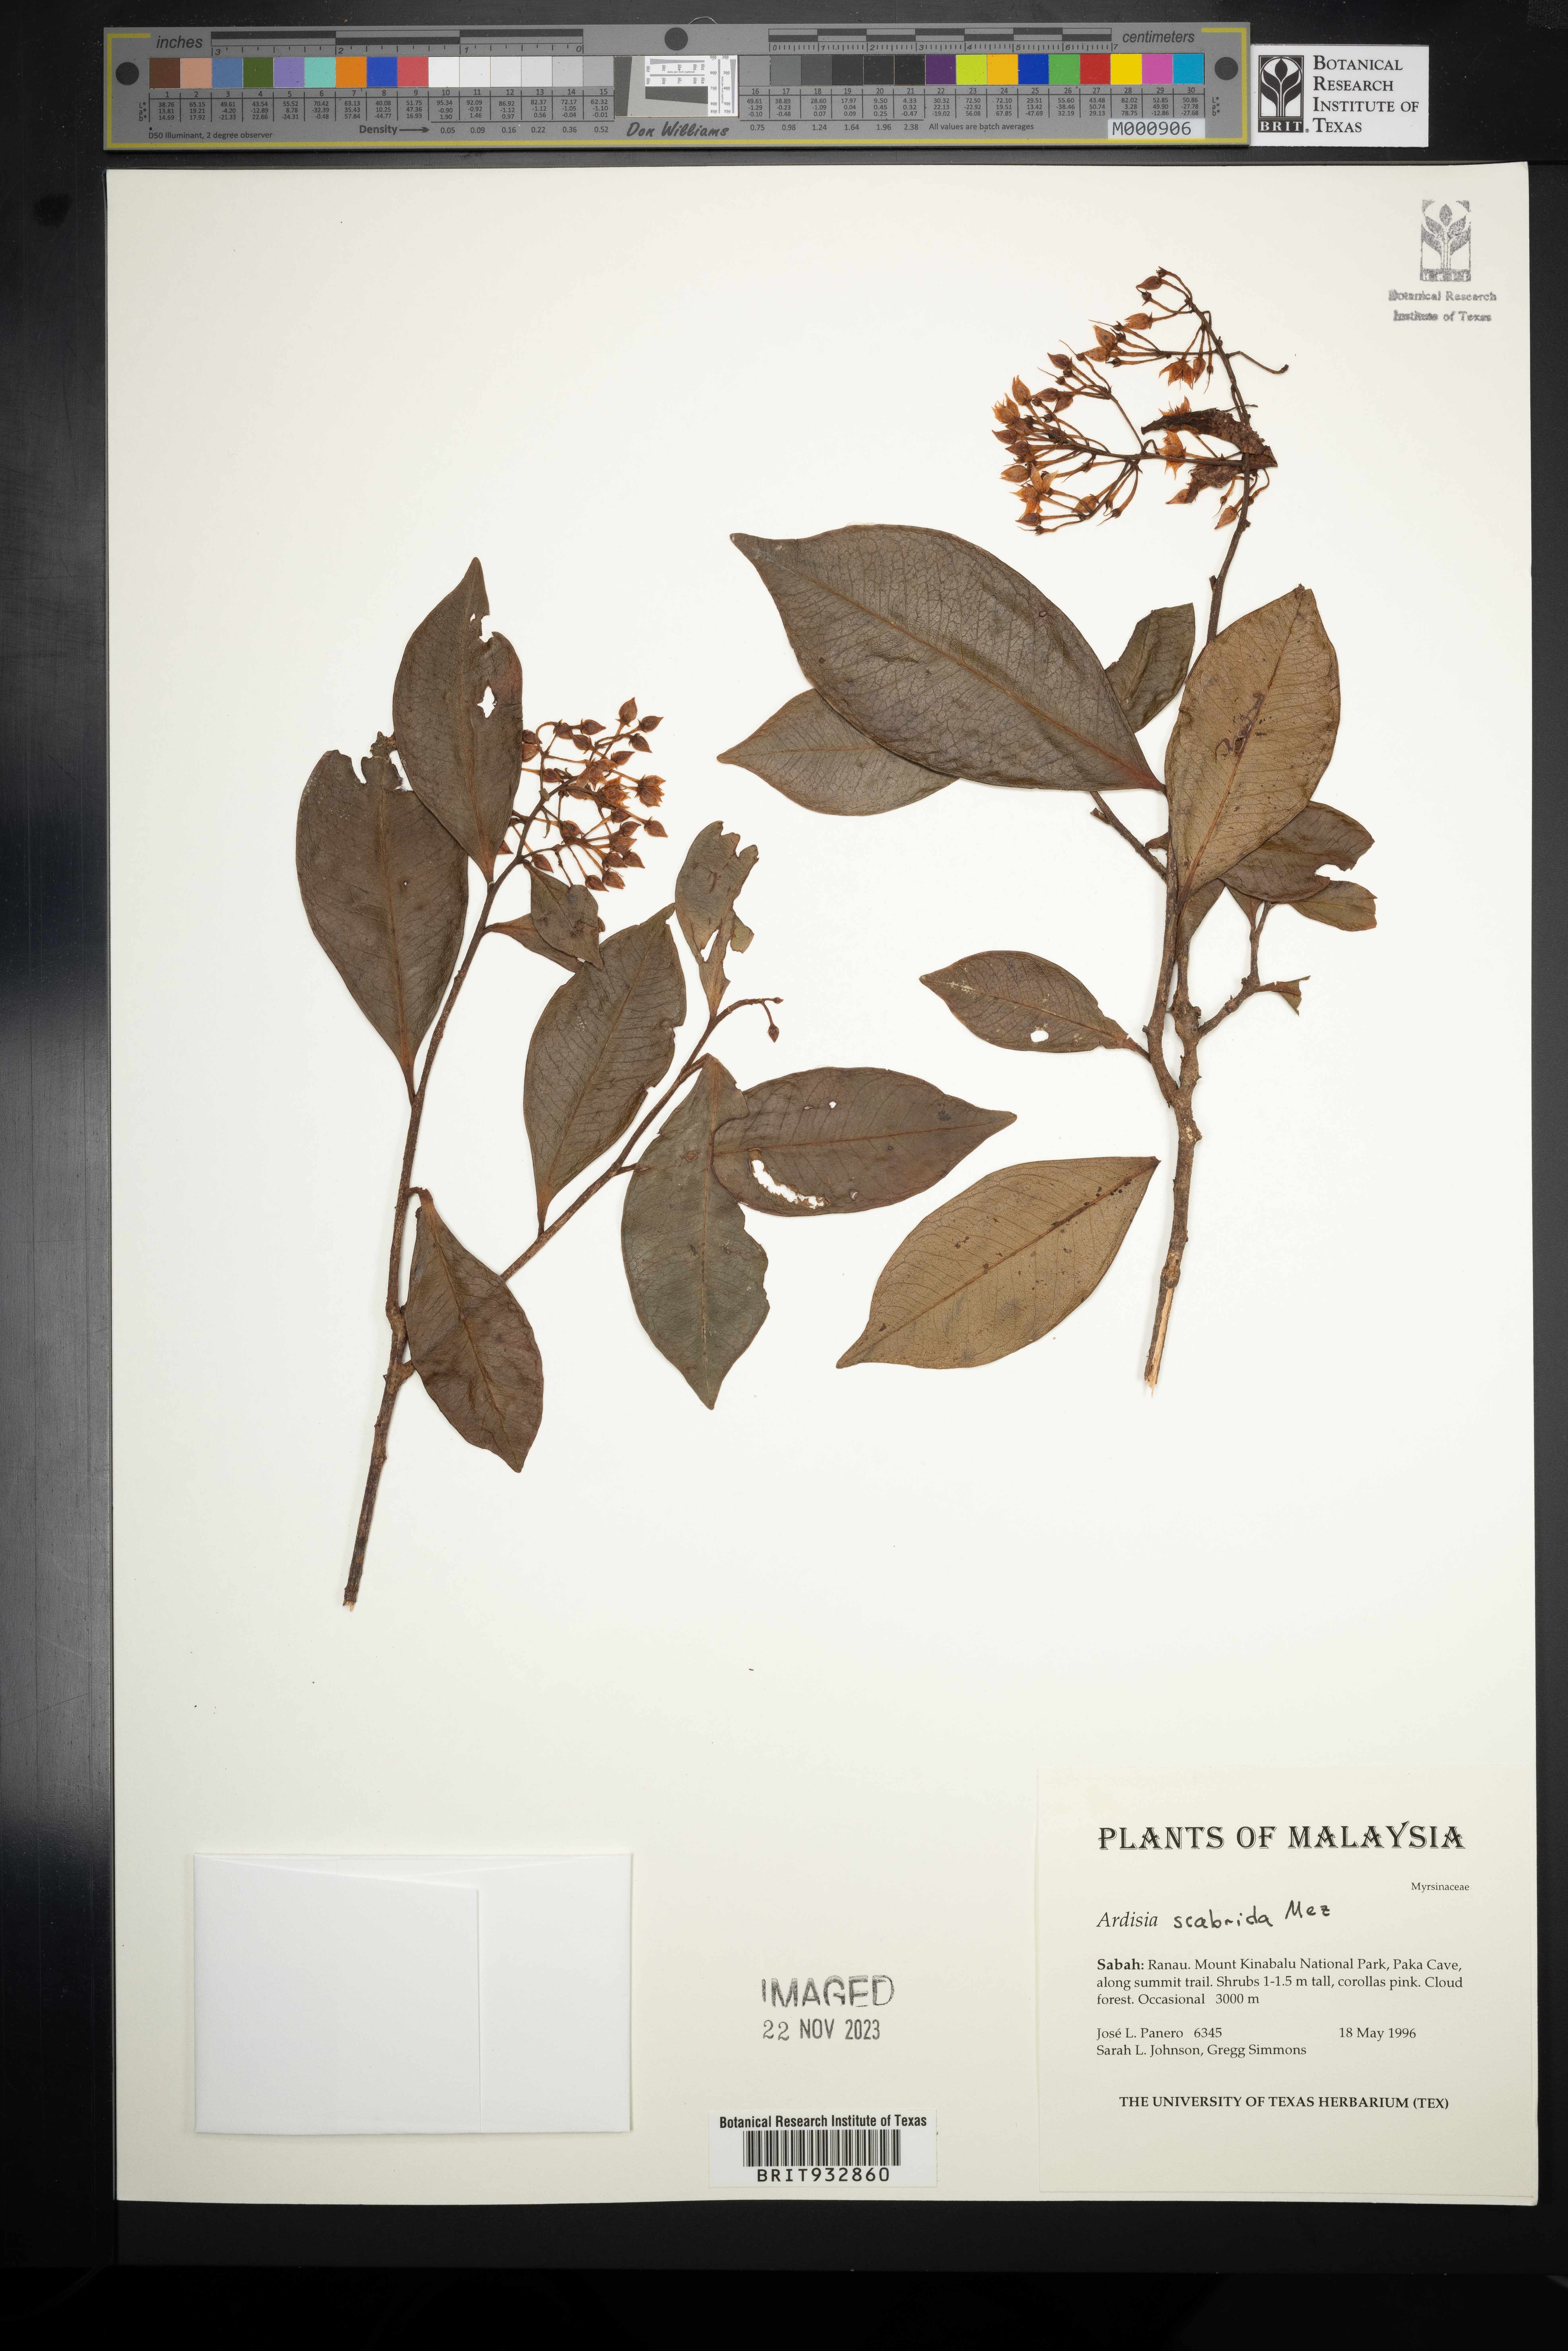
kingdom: Plantae
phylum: Tracheophyta
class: Magnoliopsida
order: Ericales
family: Primulaceae
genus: Ardisia
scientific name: Ardisia
